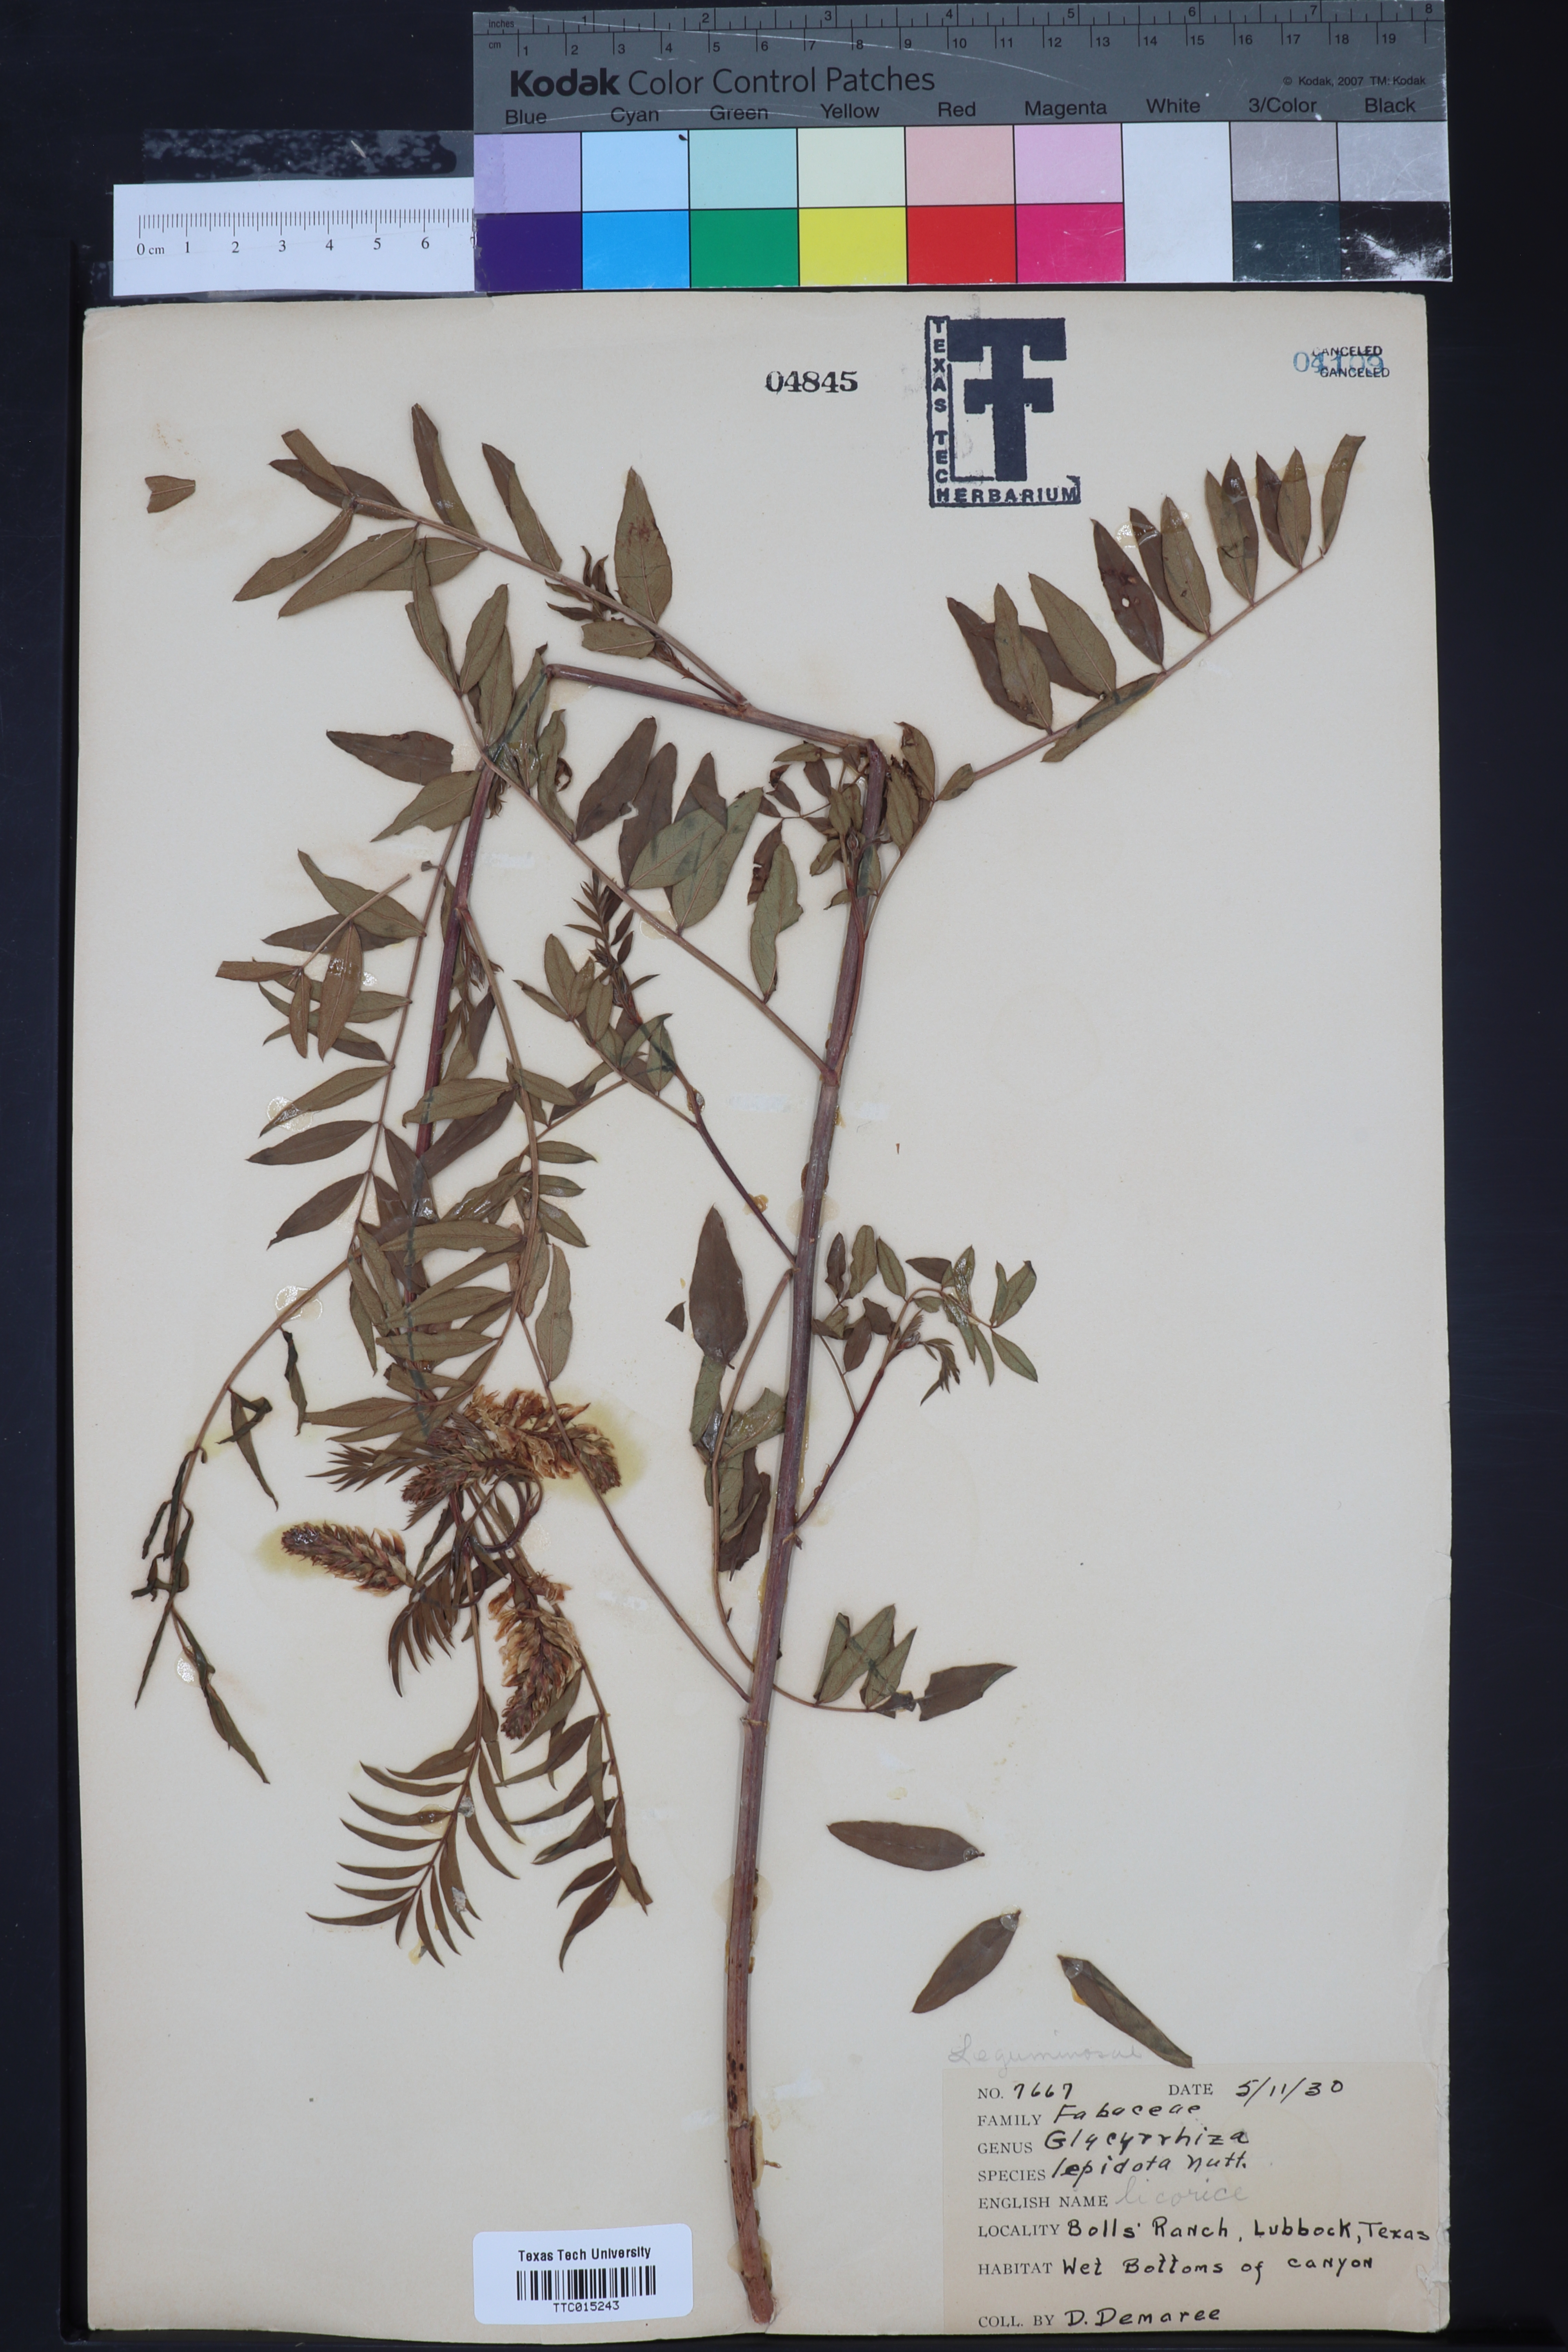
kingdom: Plantae
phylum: Tracheophyta
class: Magnoliopsida
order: Fabales
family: Fabaceae
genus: Glycyrrhiza
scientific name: Glycyrrhiza lepidota
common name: American liquorice
